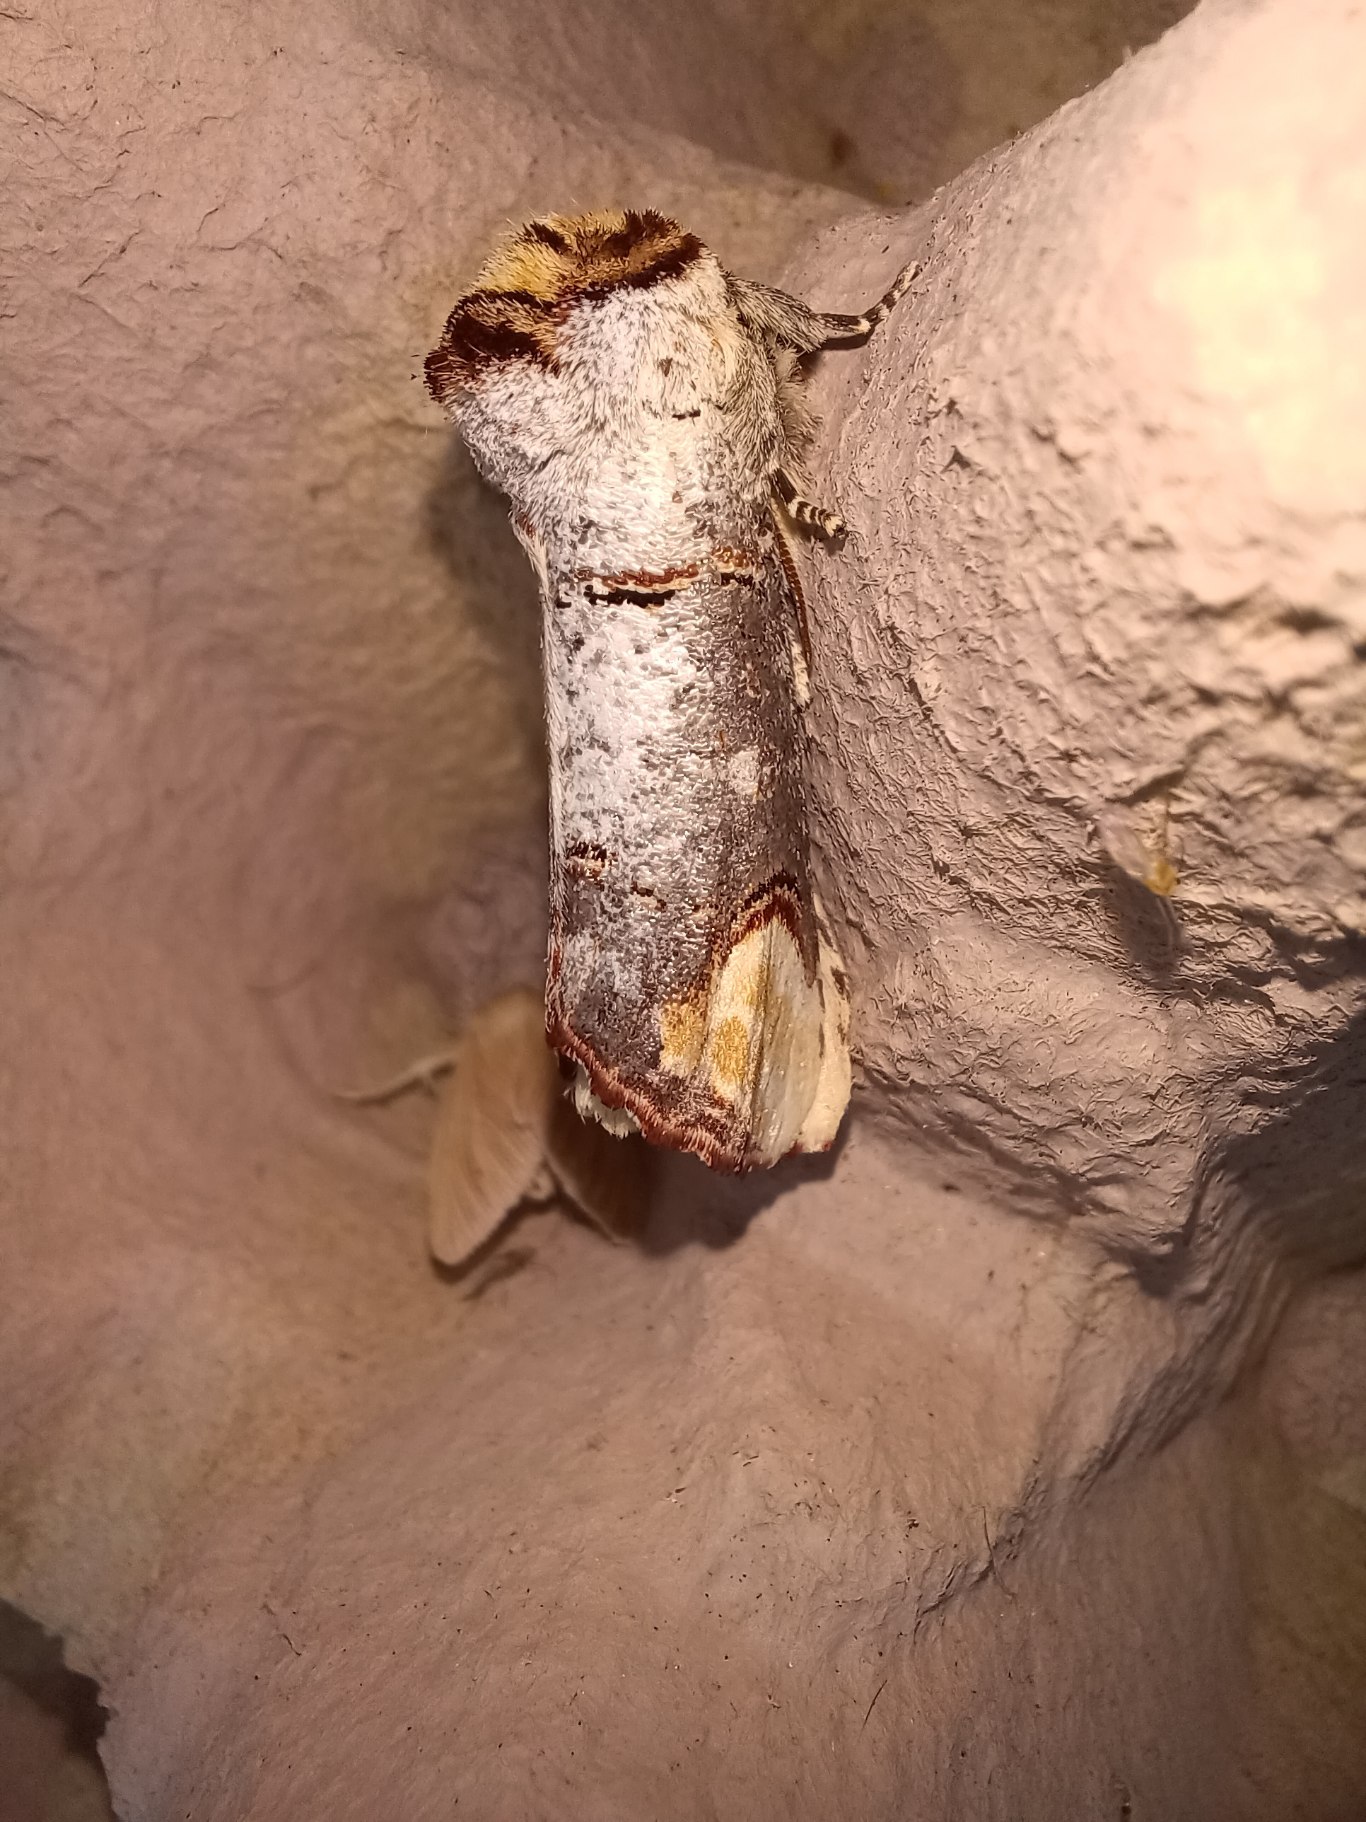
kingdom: Animalia
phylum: Arthropoda
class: Insecta
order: Lepidoptera
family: Notodontidae
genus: Phalera
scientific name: Phalera bucephala
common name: Måneplet
